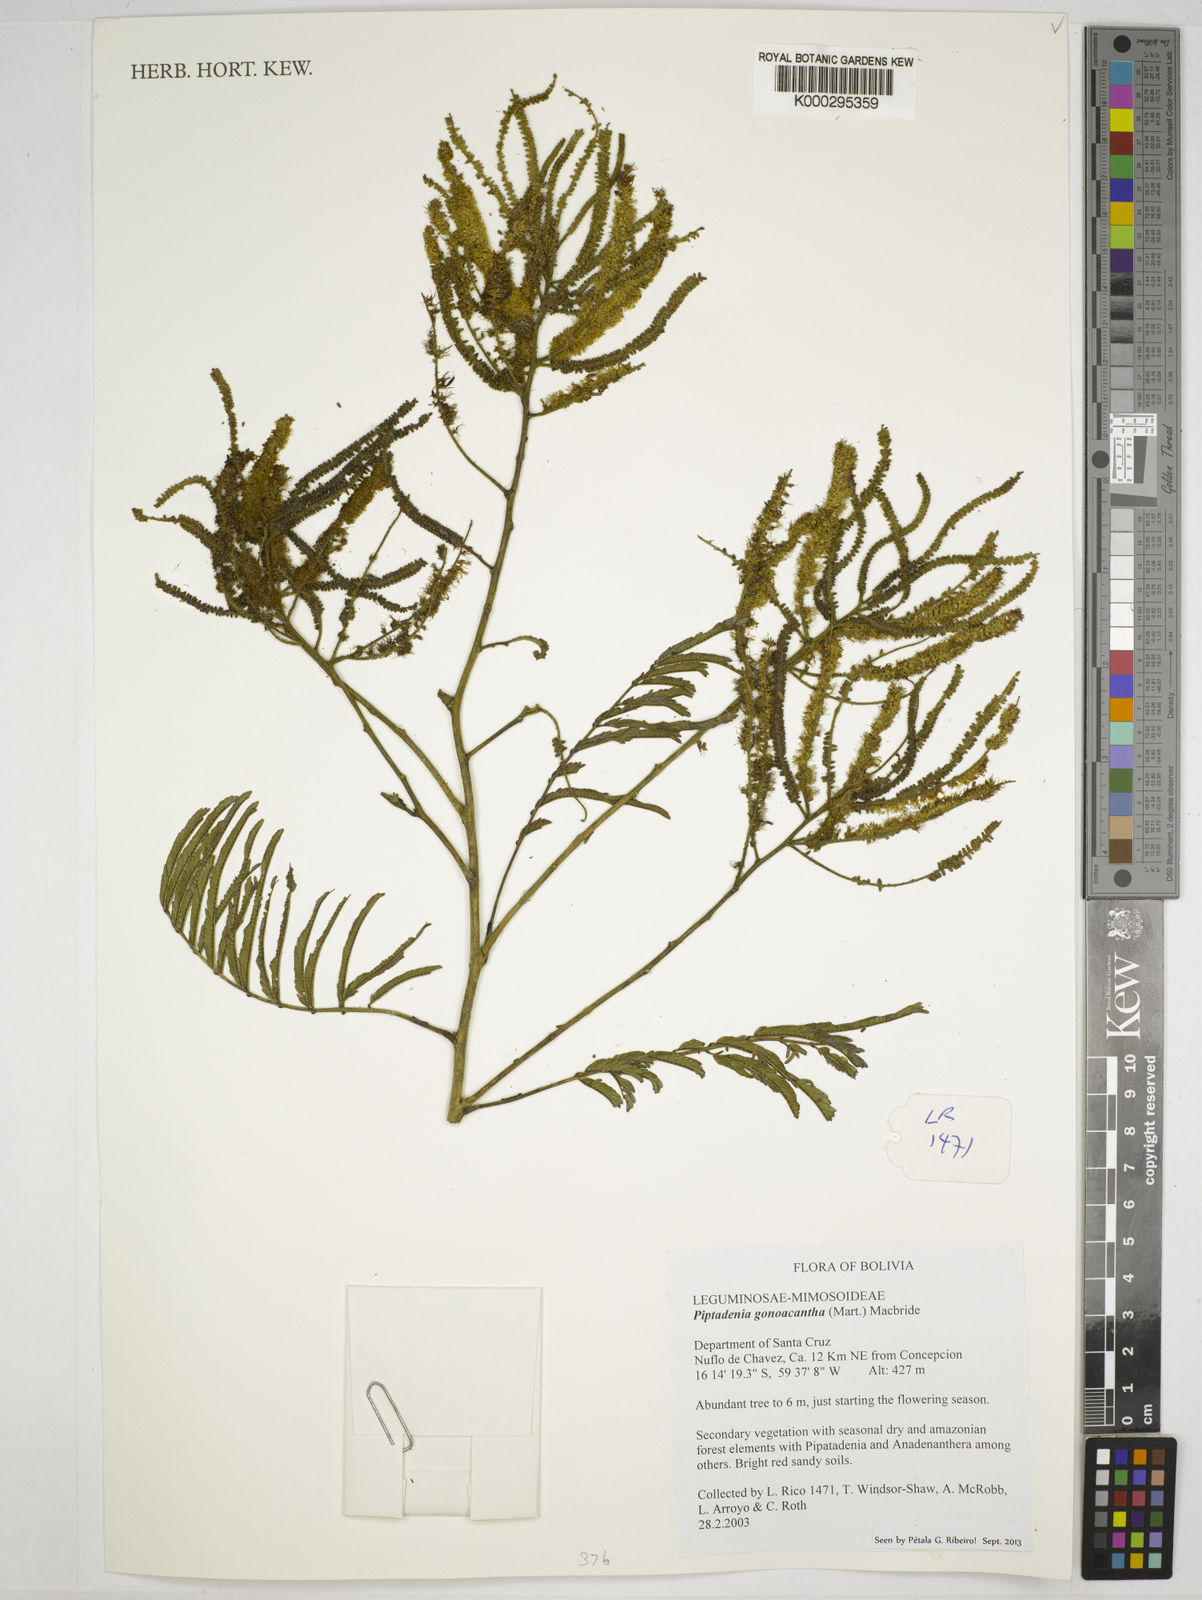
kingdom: Plantae
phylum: Tracheophyta
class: Magnoliopsida
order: Fabales
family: Fabaceae
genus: Piptadenia
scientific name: Piptadenia gonoacantha
